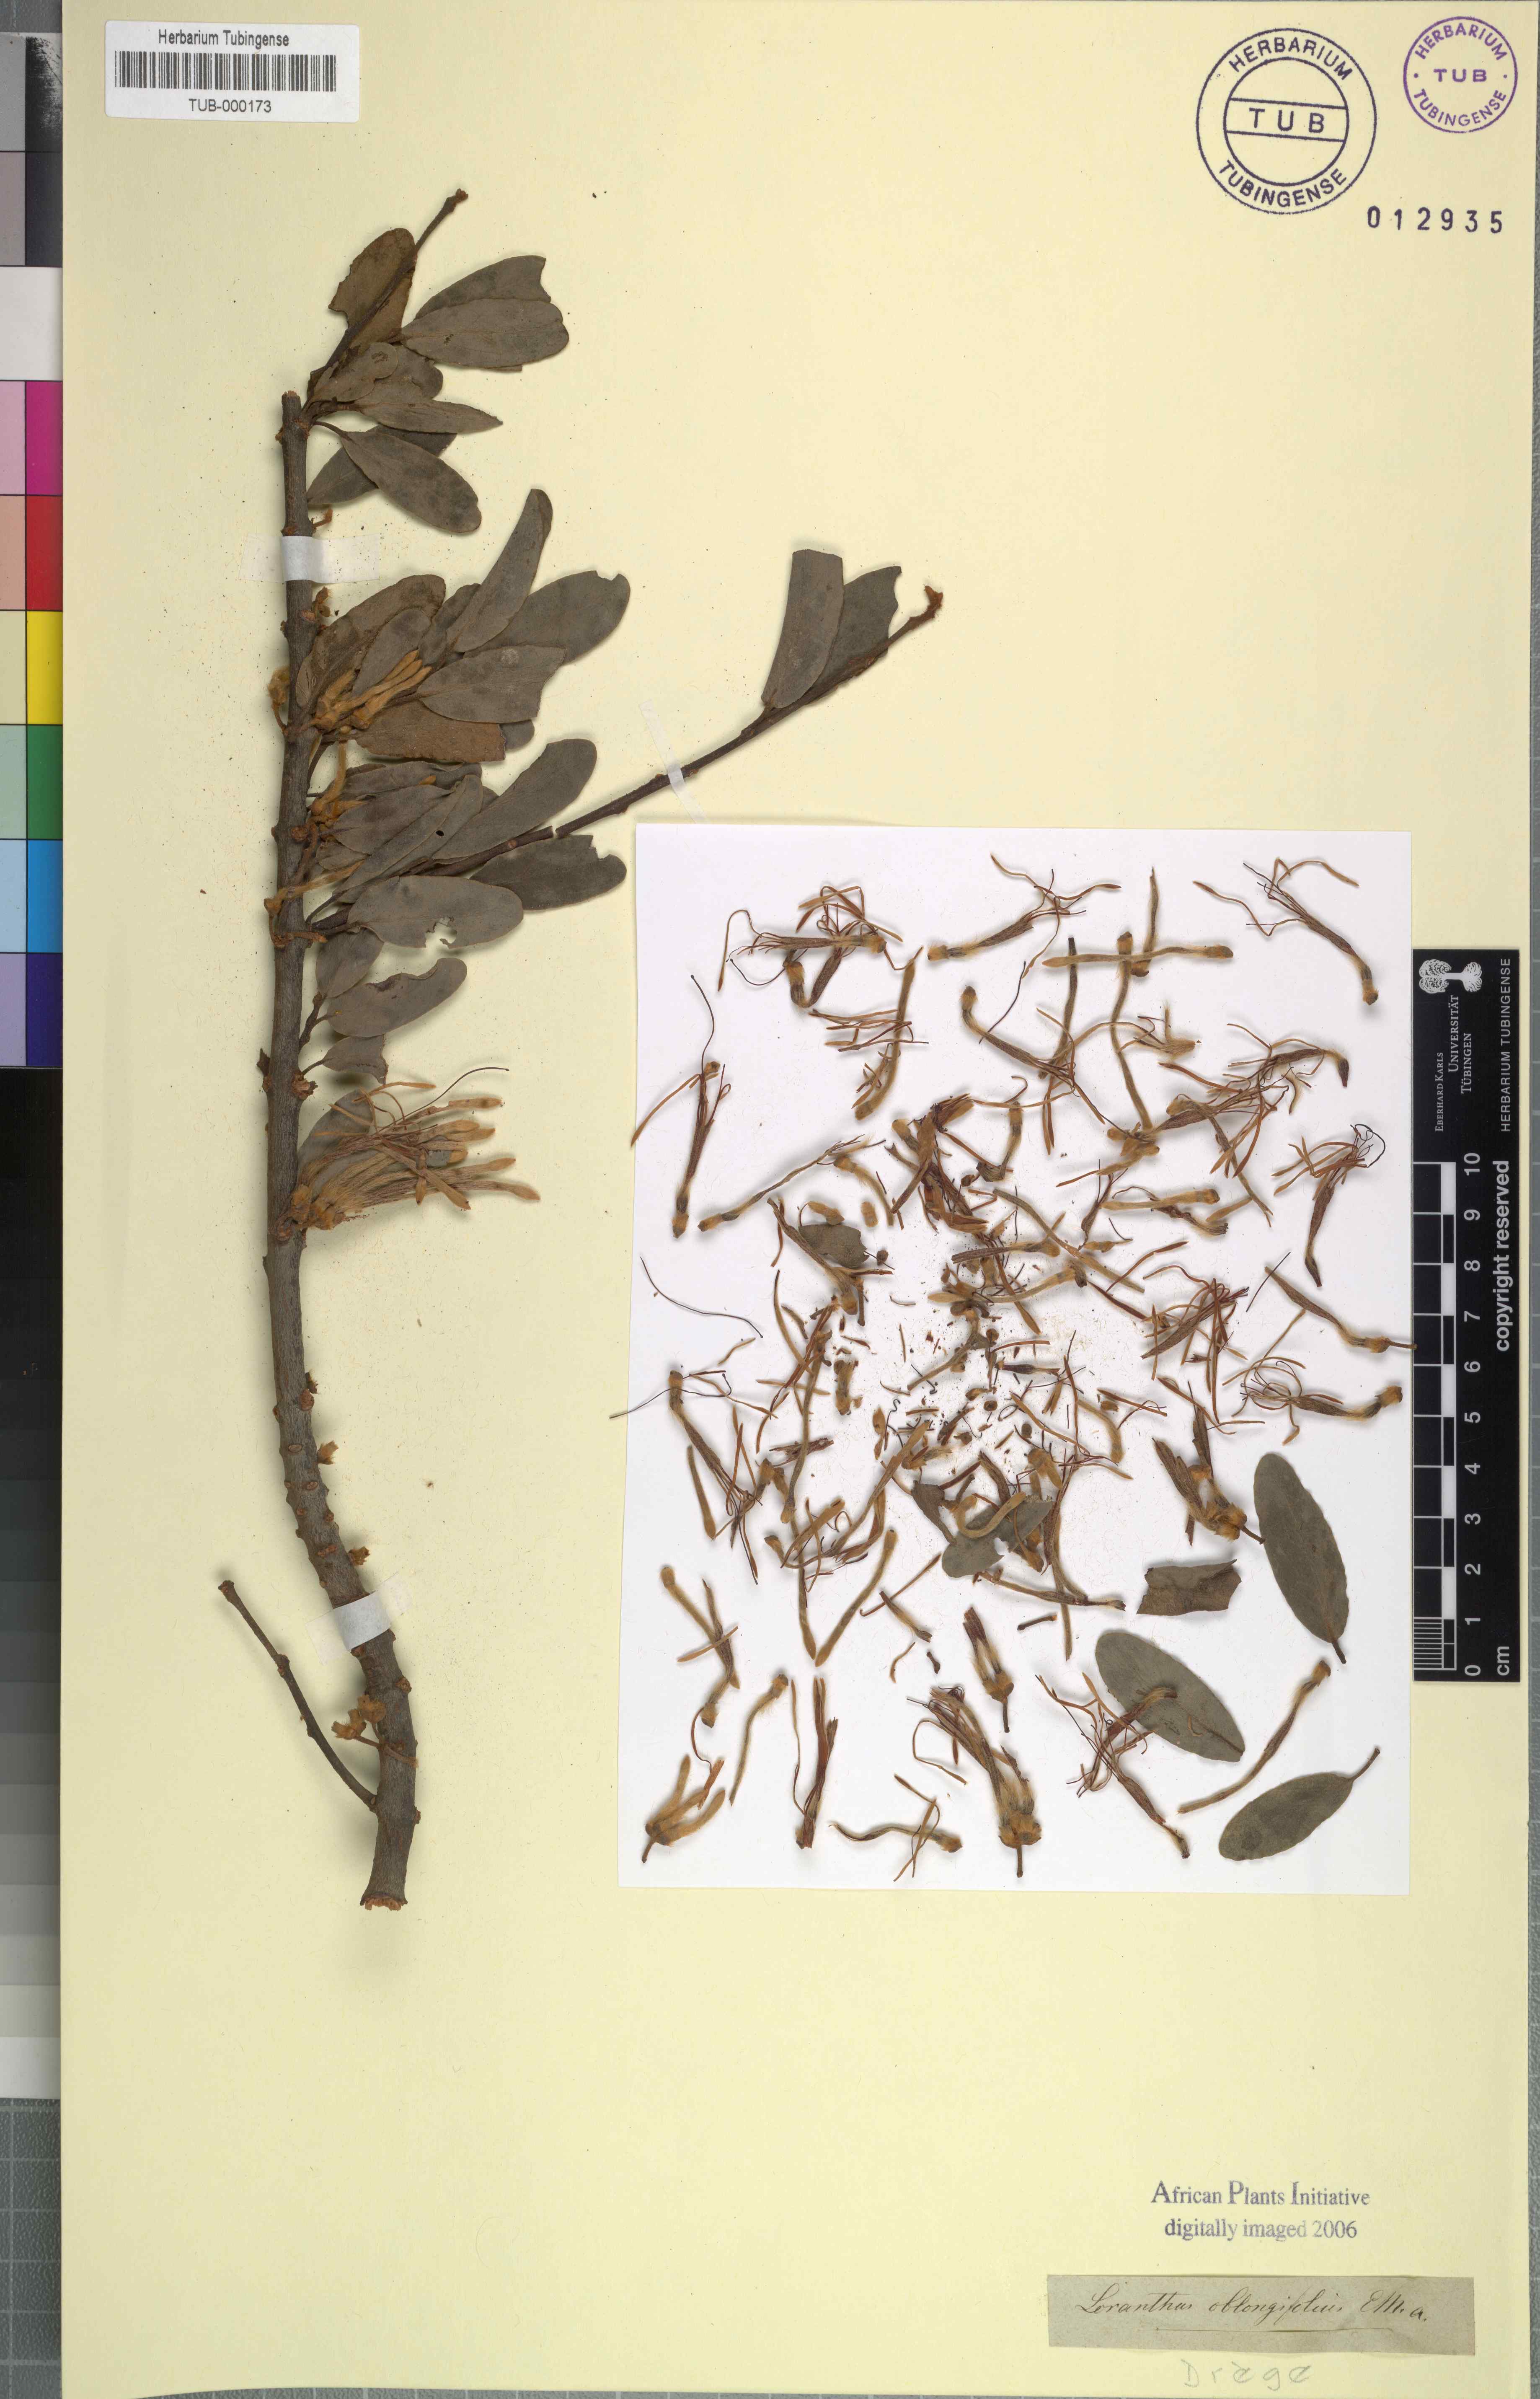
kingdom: Plantae
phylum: Tracheophyta
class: Magnoliopsida
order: Santalales
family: Loranthaceae
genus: Tapinanthus
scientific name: Tapinanthus oleifolius
